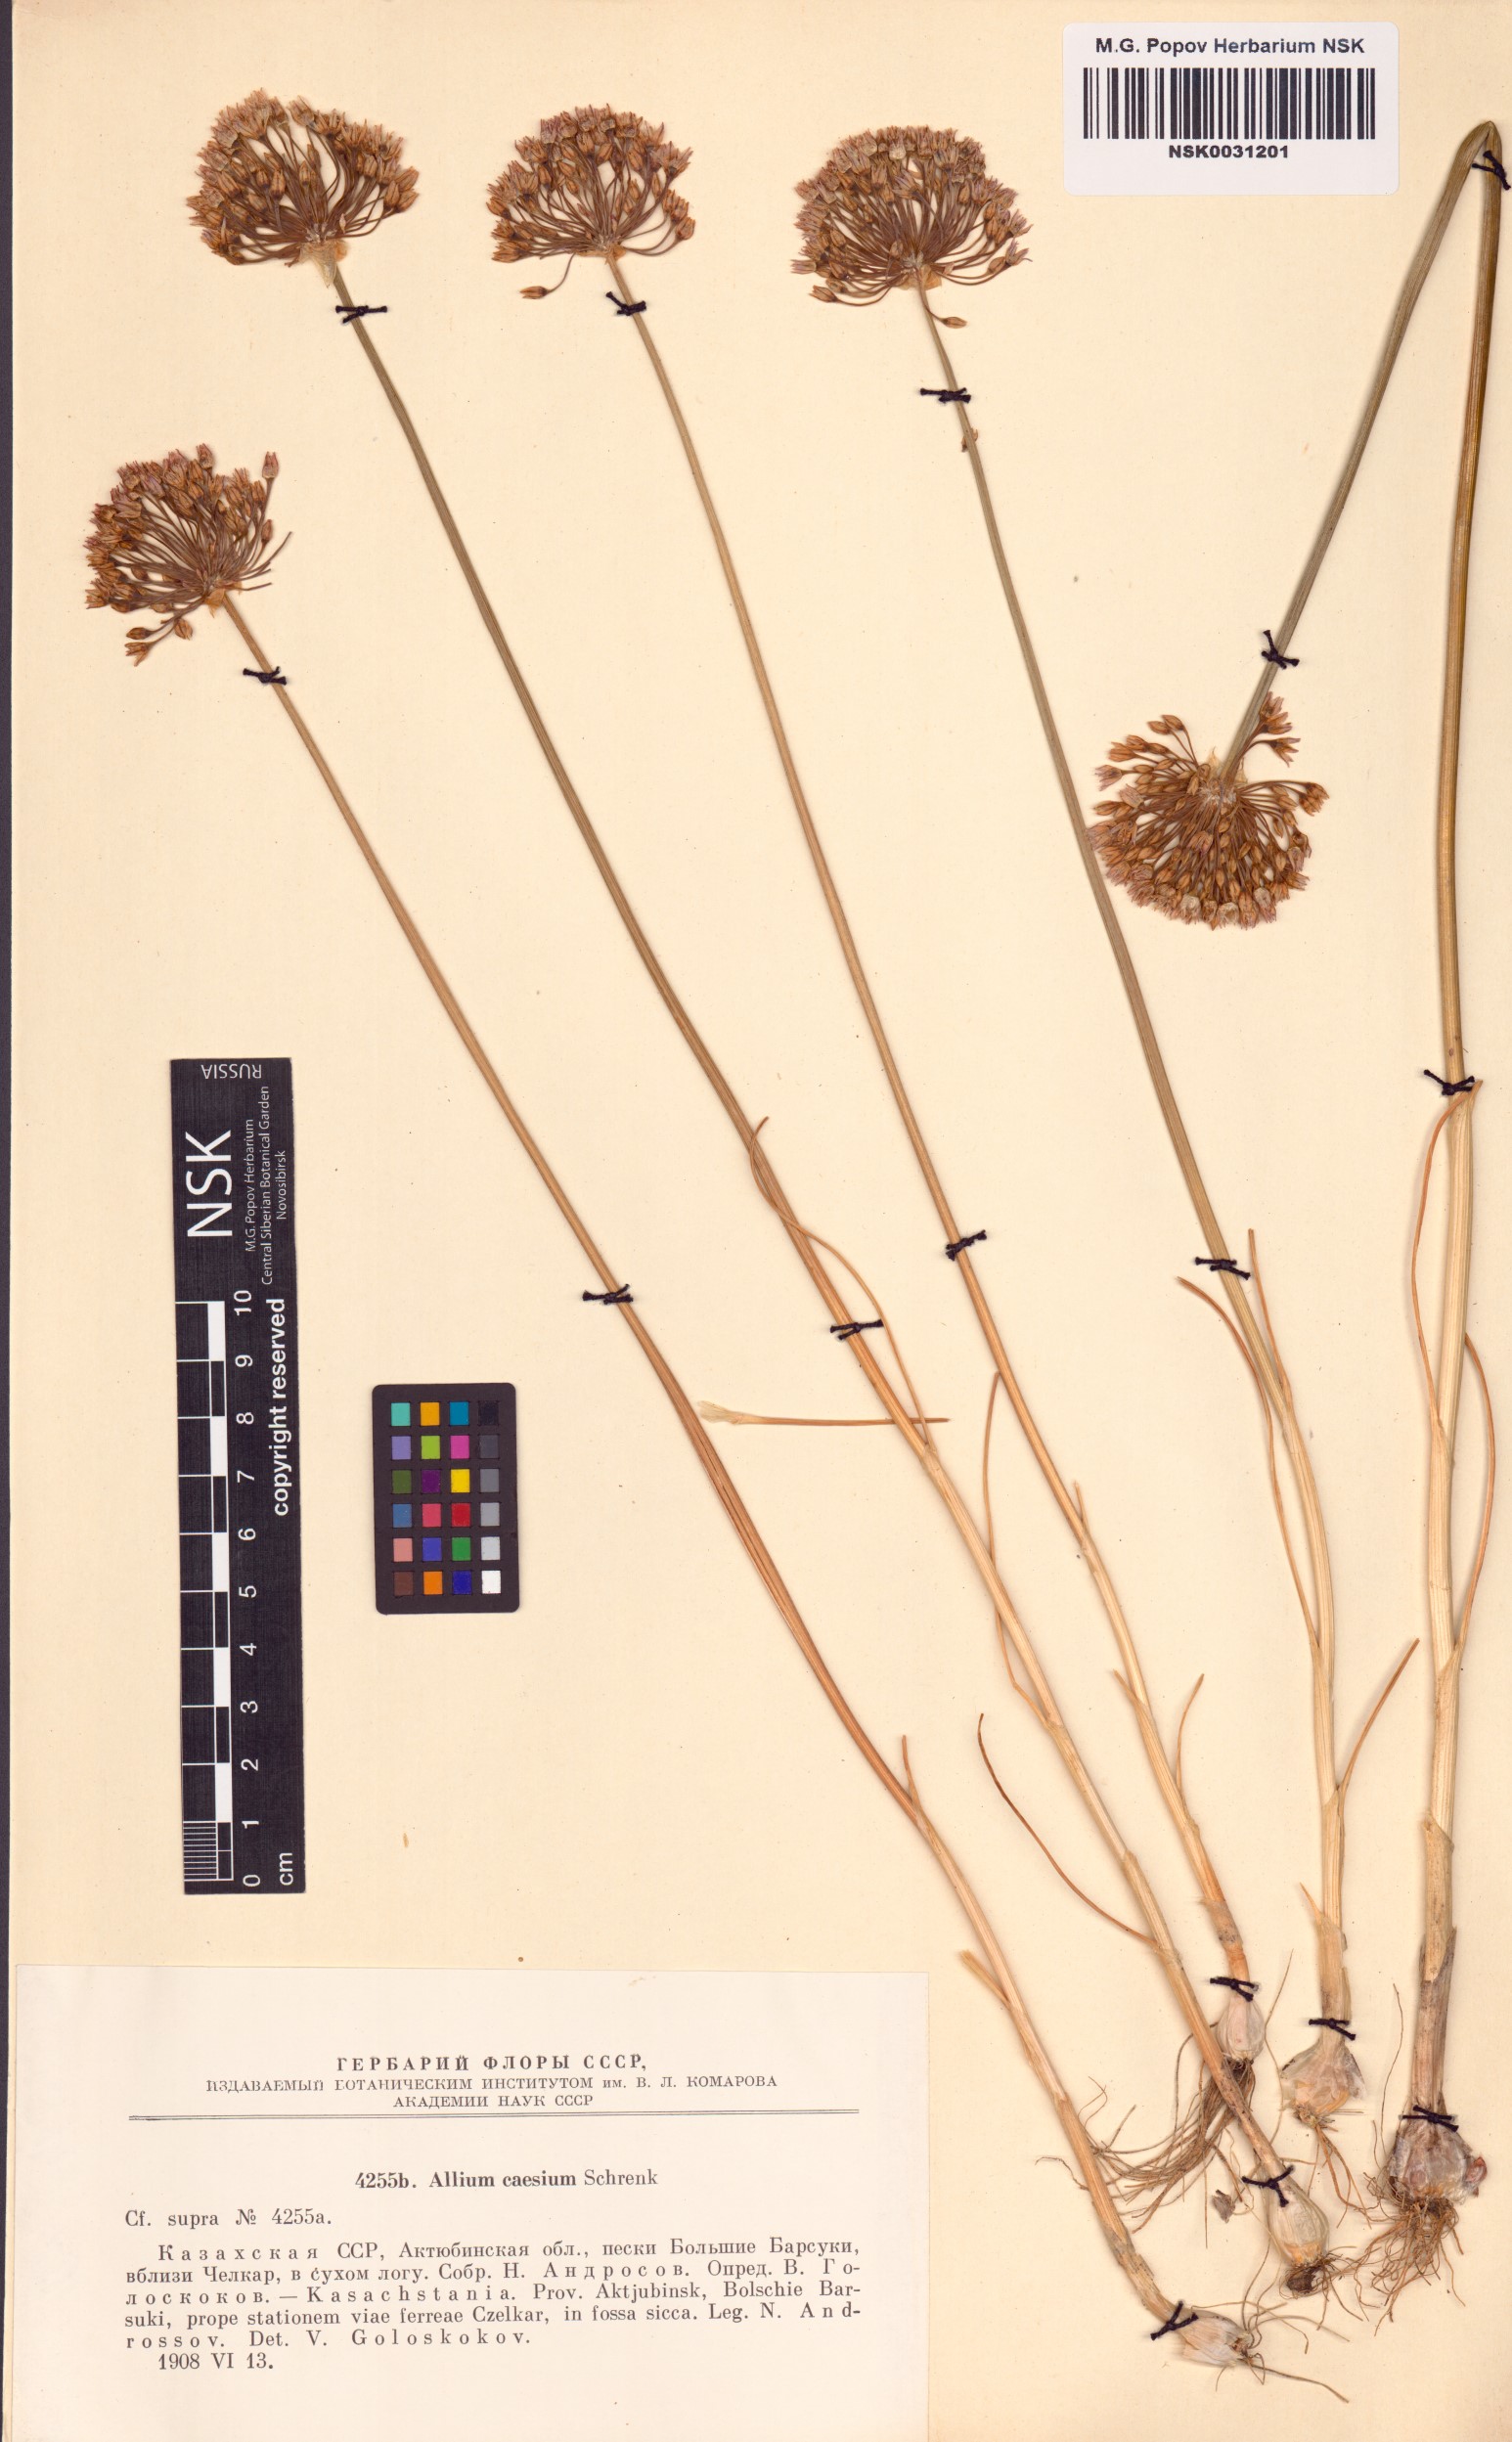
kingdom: Plantae
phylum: Tracheophyta
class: Liliopsida
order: Asparagales
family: Amaryllidaceae
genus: Allium
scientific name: Allium caesium
